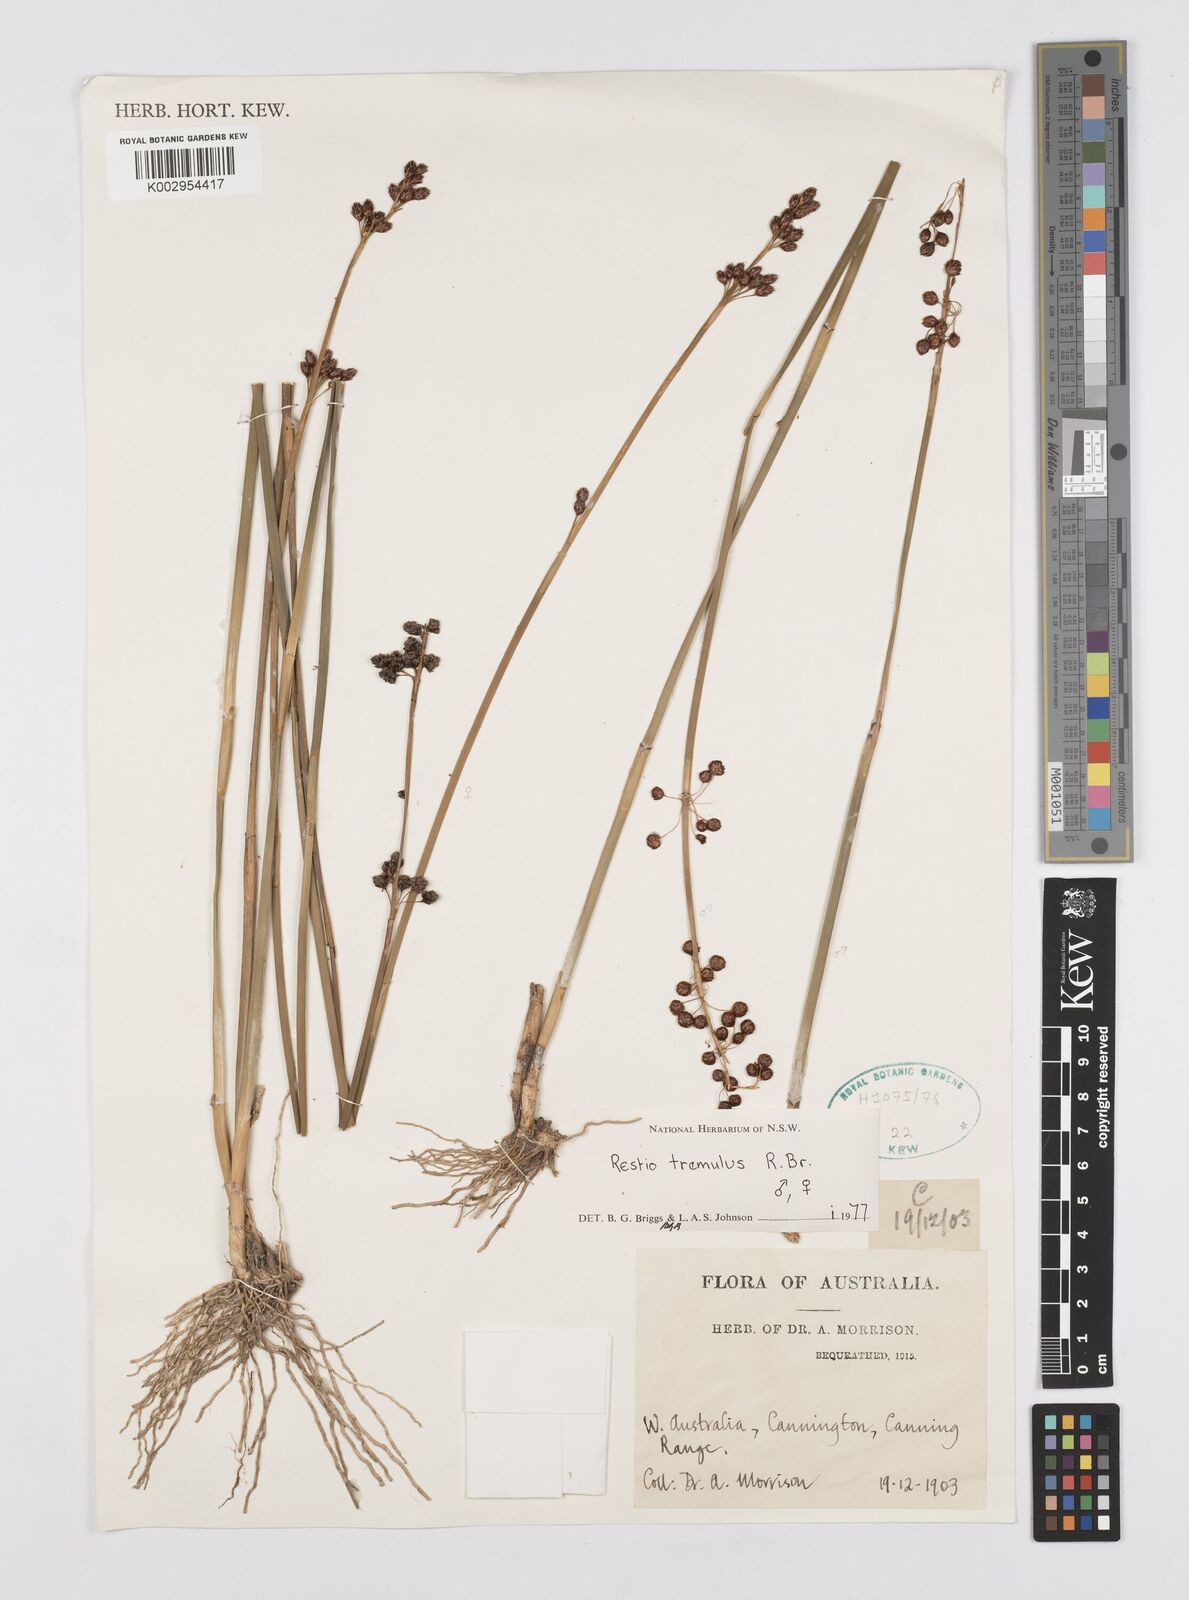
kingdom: Plantae
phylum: Tracheophyta
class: Liliopsida
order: Poales
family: Restionaceae
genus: Tremulina
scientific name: Tremulina tremula
